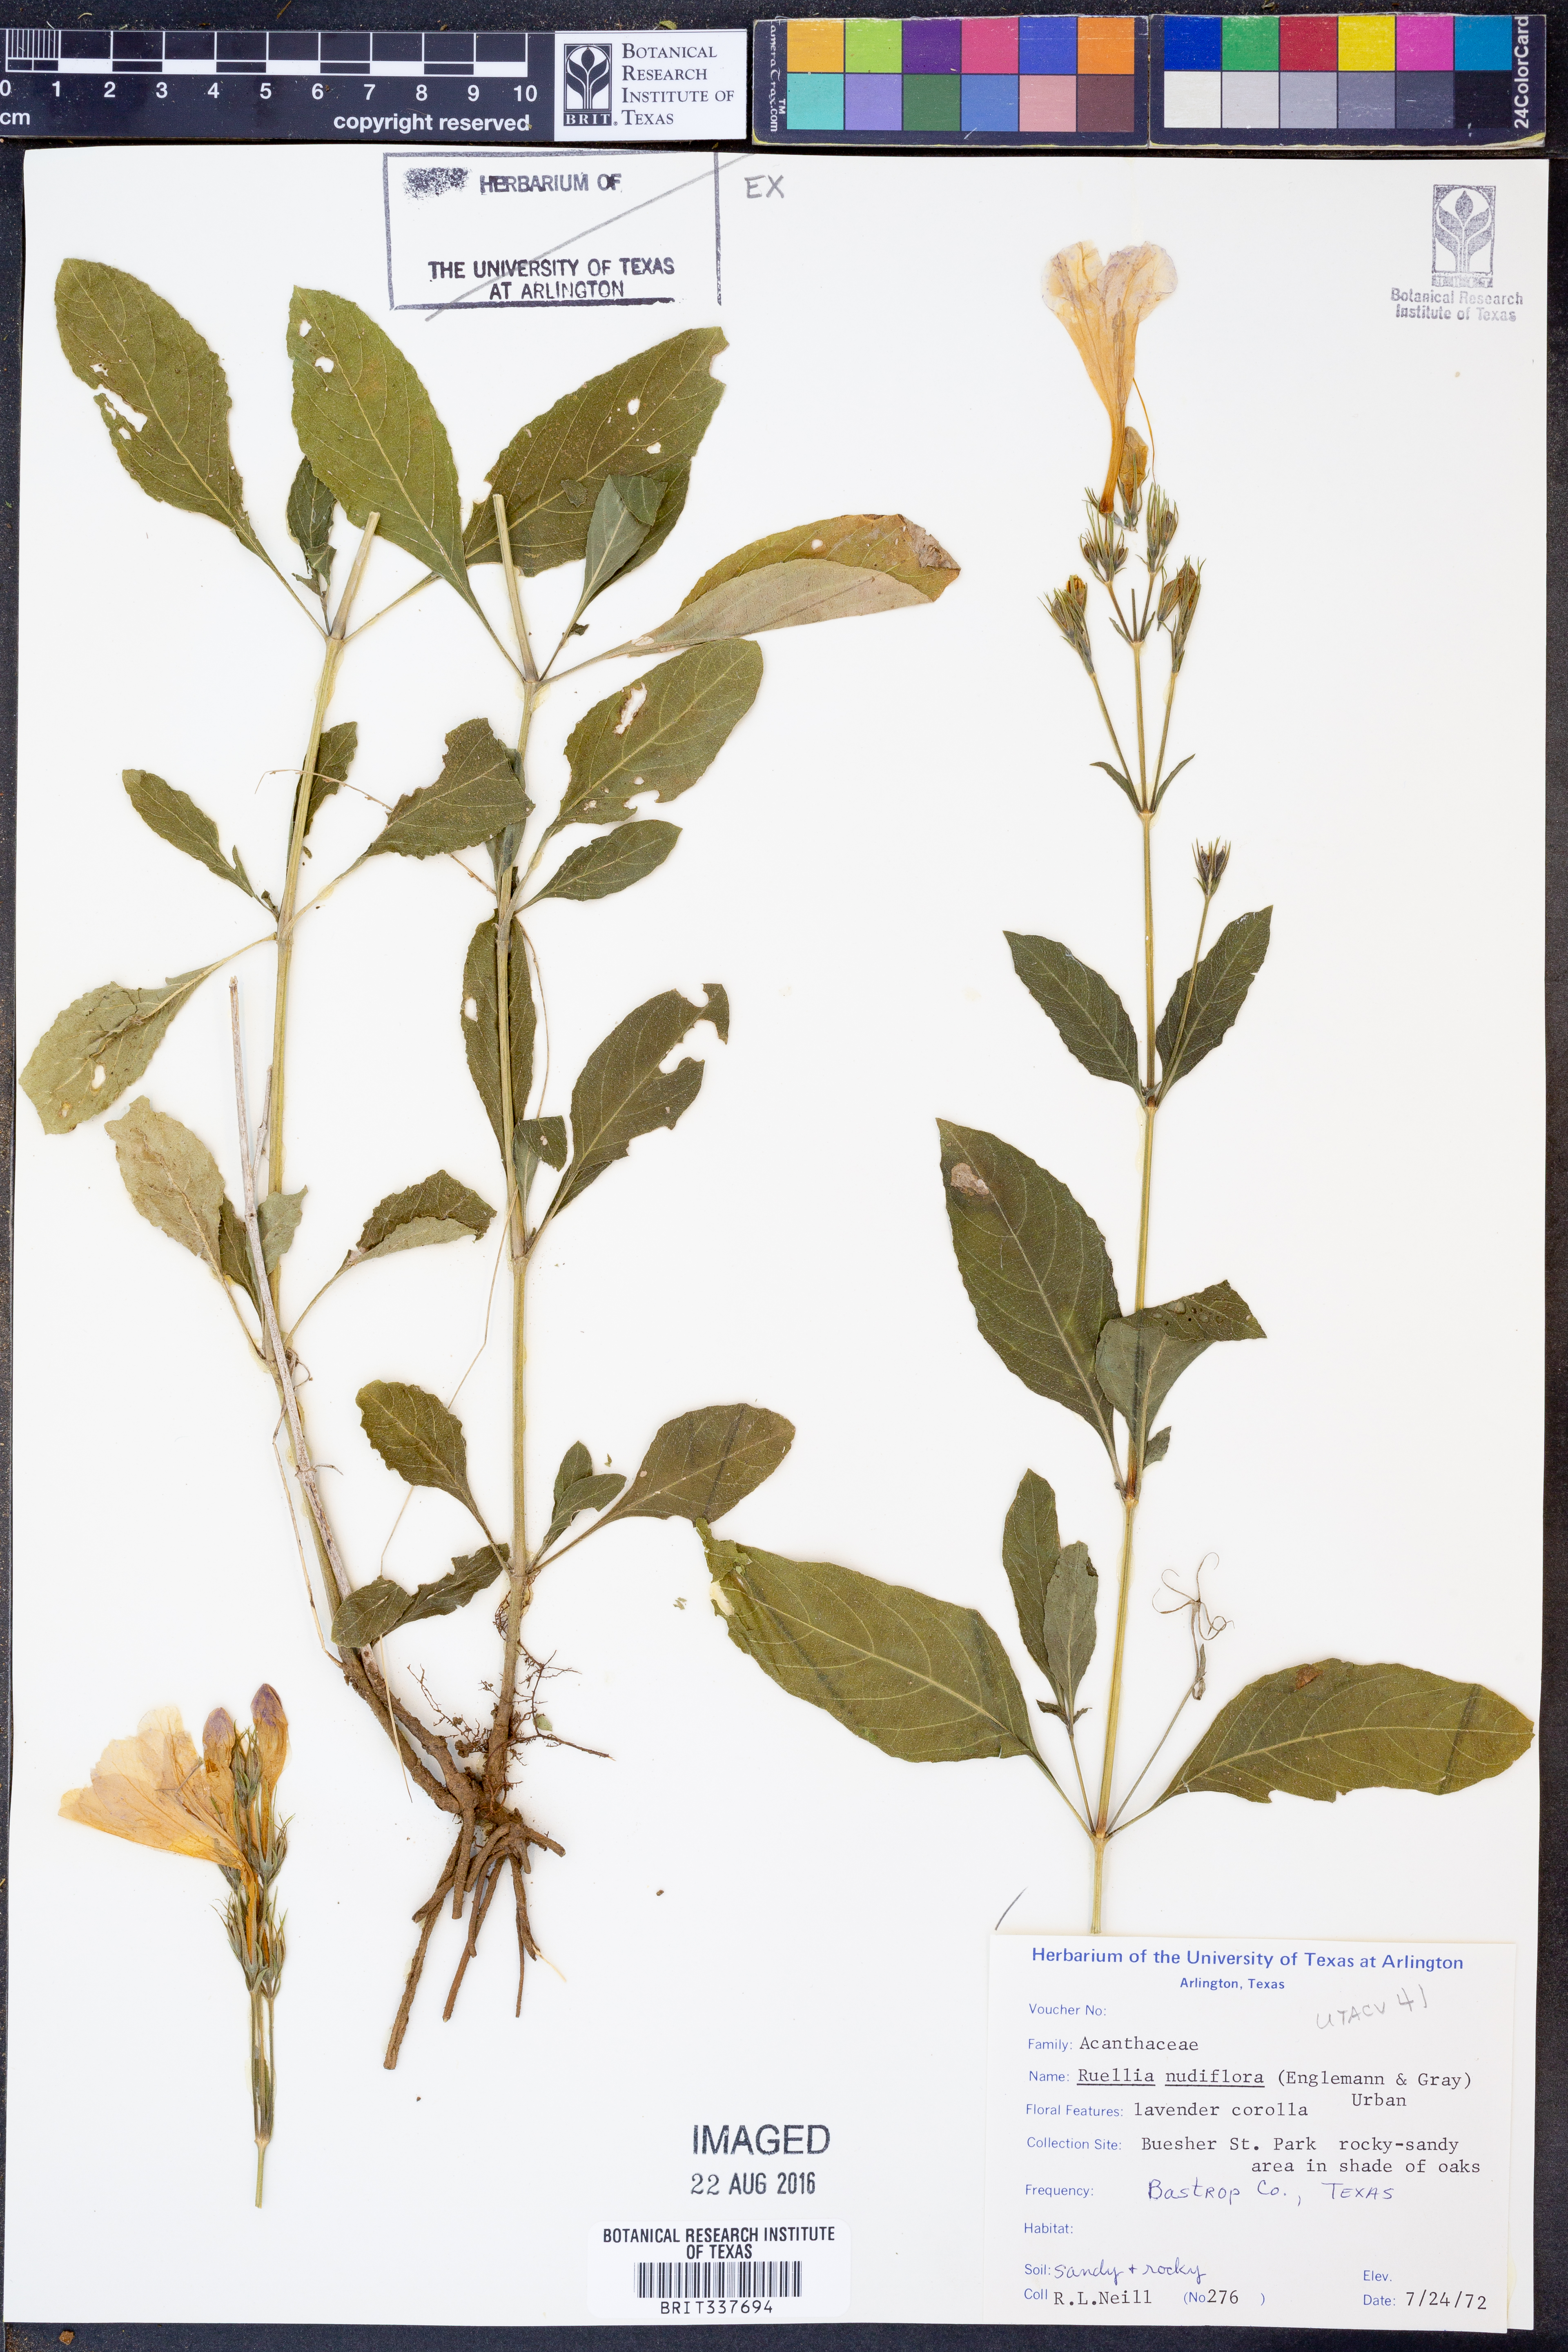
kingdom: Plantae
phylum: Tracheophyta
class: Magnoliopsida
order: Lamiales
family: Acanthaceae
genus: Ruellia
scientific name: Ruellia ciliatiflora
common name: Hairyflower wild petunia
